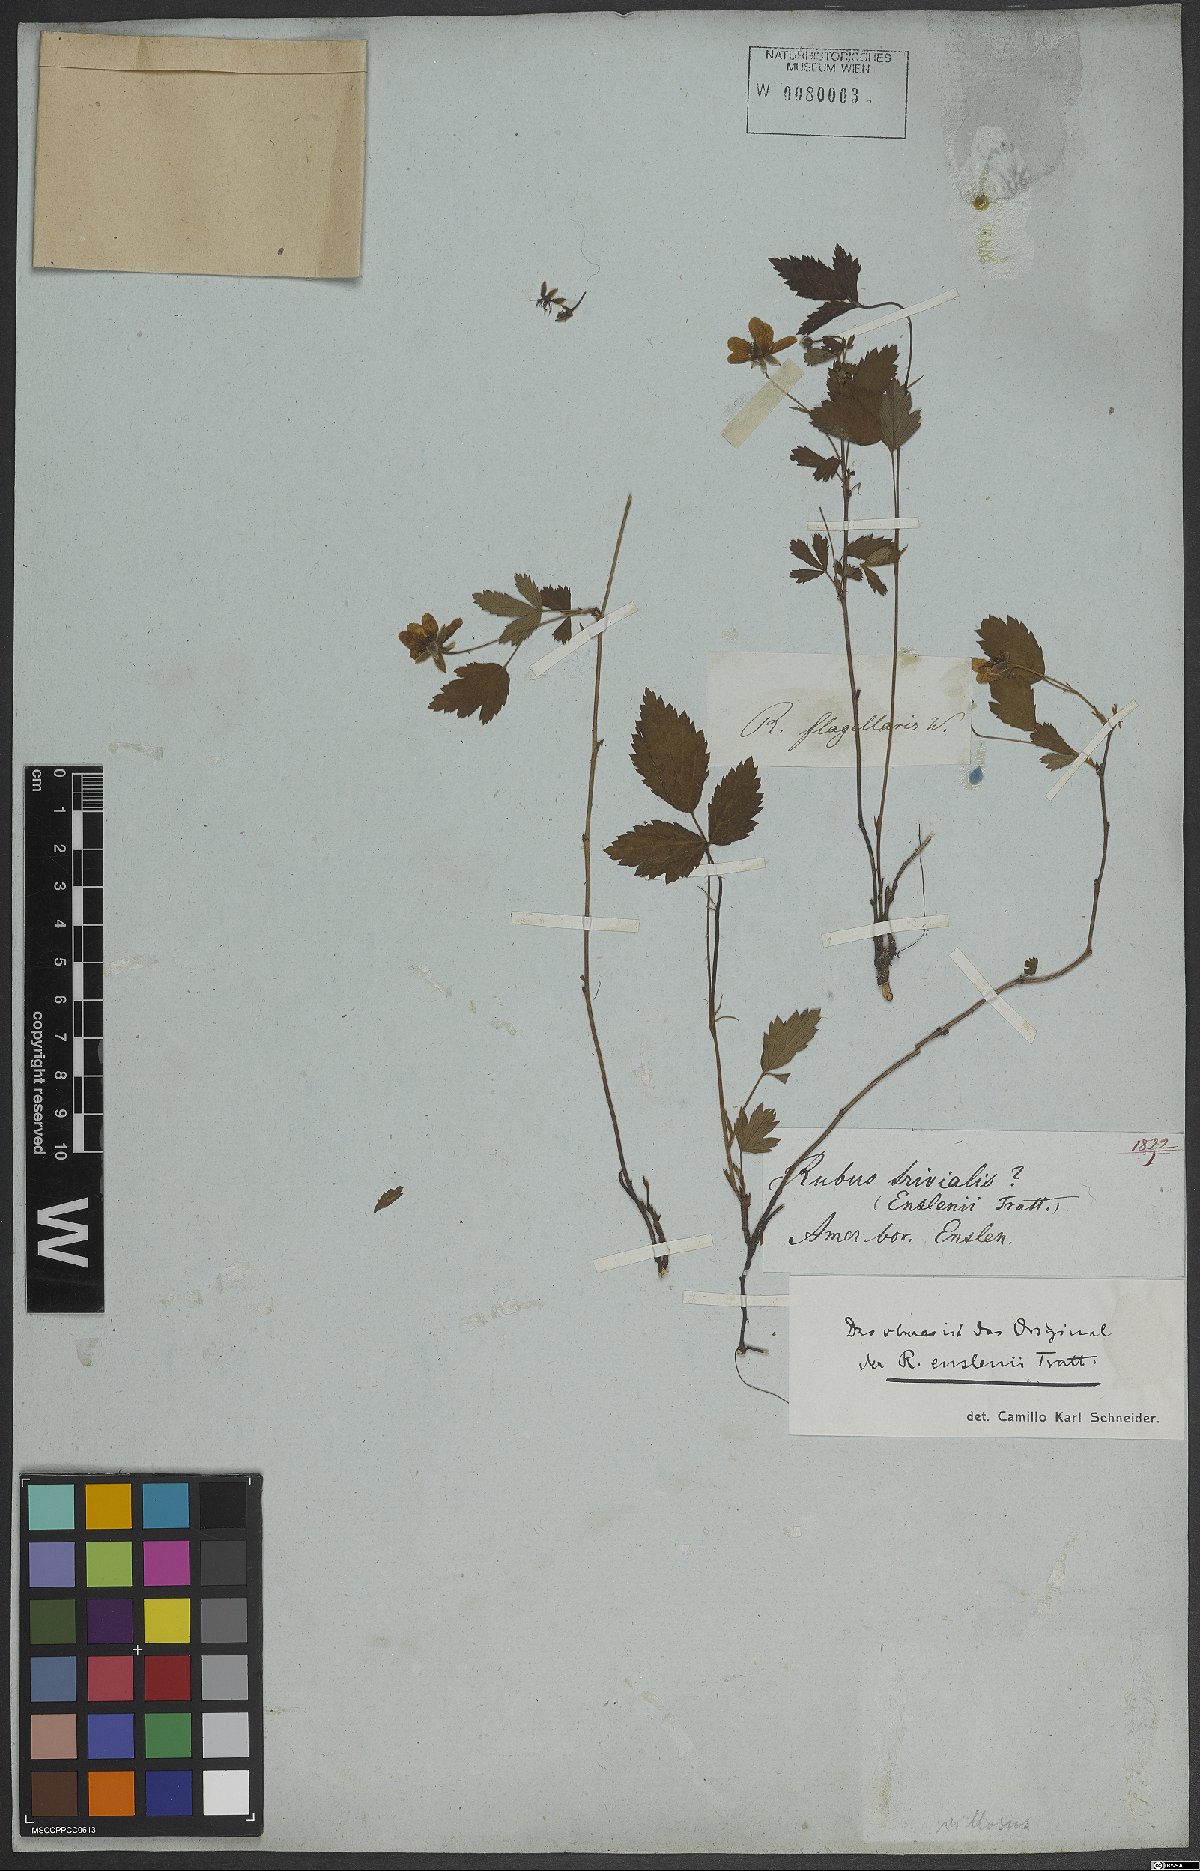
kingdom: Plantae
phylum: Tracheophyta
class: Magnoliopsida
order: Rosales
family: Rosaceae
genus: Rubus
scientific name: Rubus enslenii
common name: Southern dewberry
